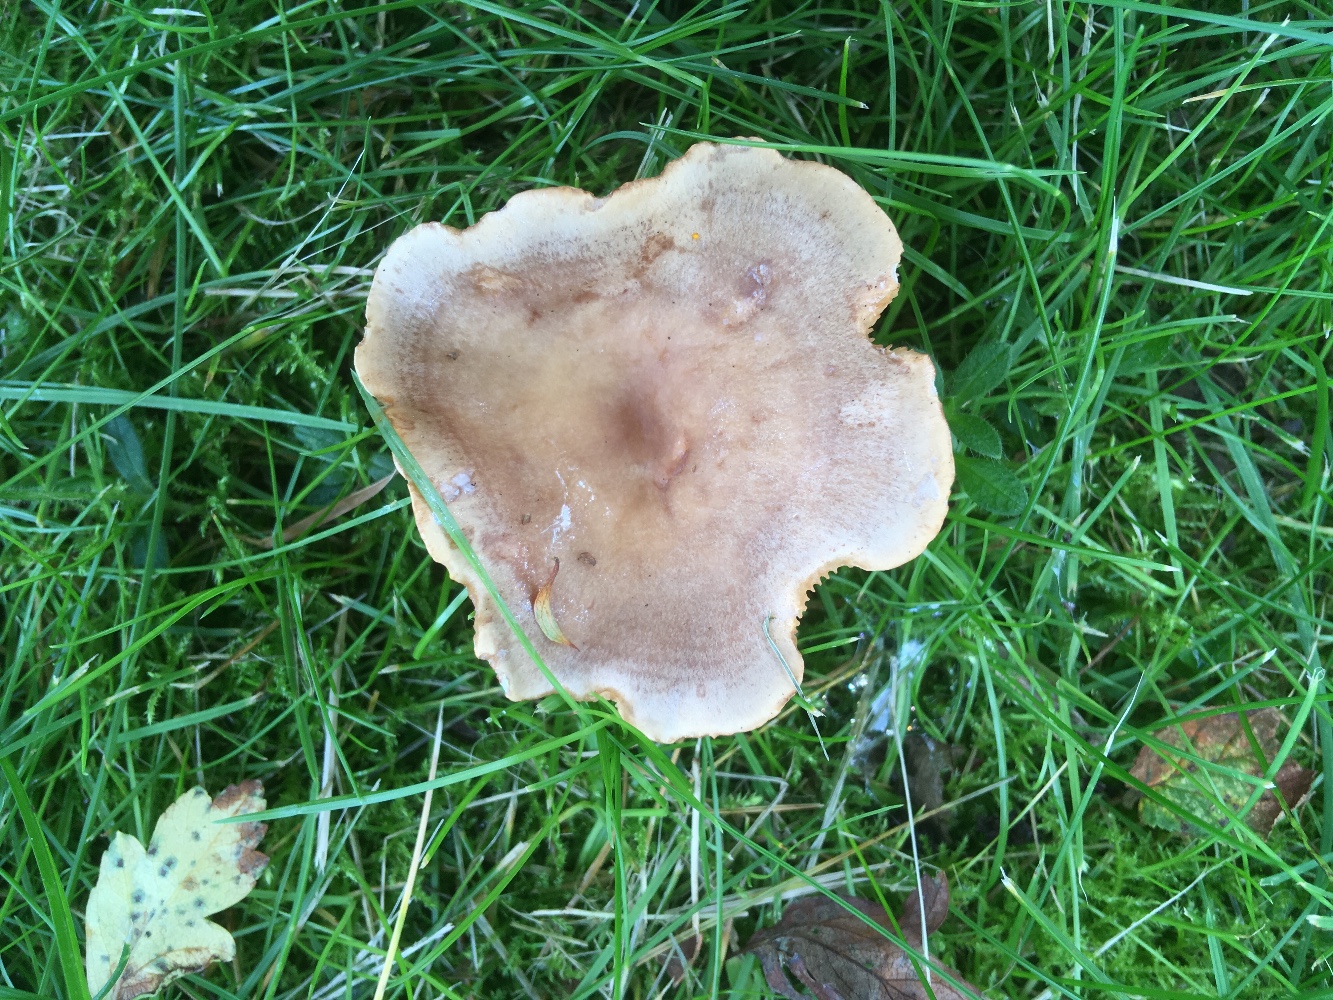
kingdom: Fungi
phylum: Basidiomycota
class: Agaricomycetes
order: Russulales
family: Russulaceae
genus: Lactarius
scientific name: Lactarius pyrogalus
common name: hassel-mælkehat
